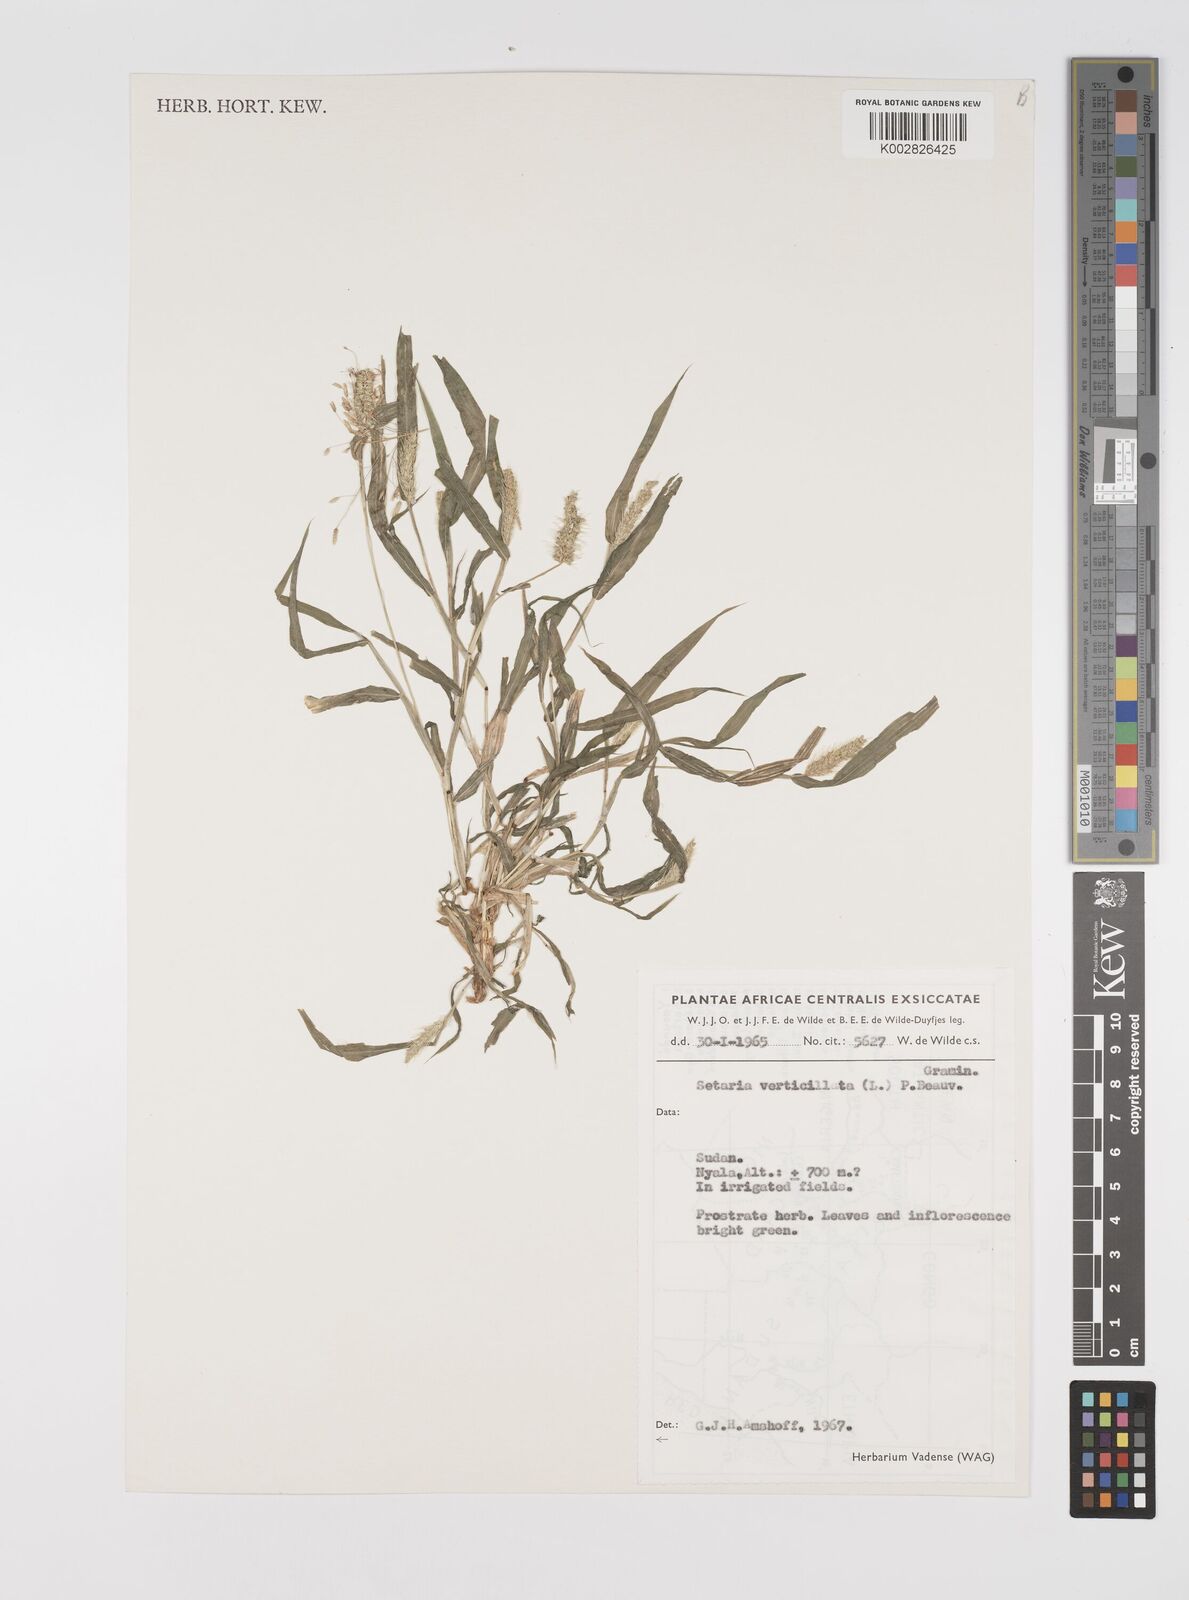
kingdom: Plantae
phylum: Tracheophyta
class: Liliopsida
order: Poales
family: Poaceae
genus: Setaria
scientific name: Setaria verticillata
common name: Hooked bristlegrass
